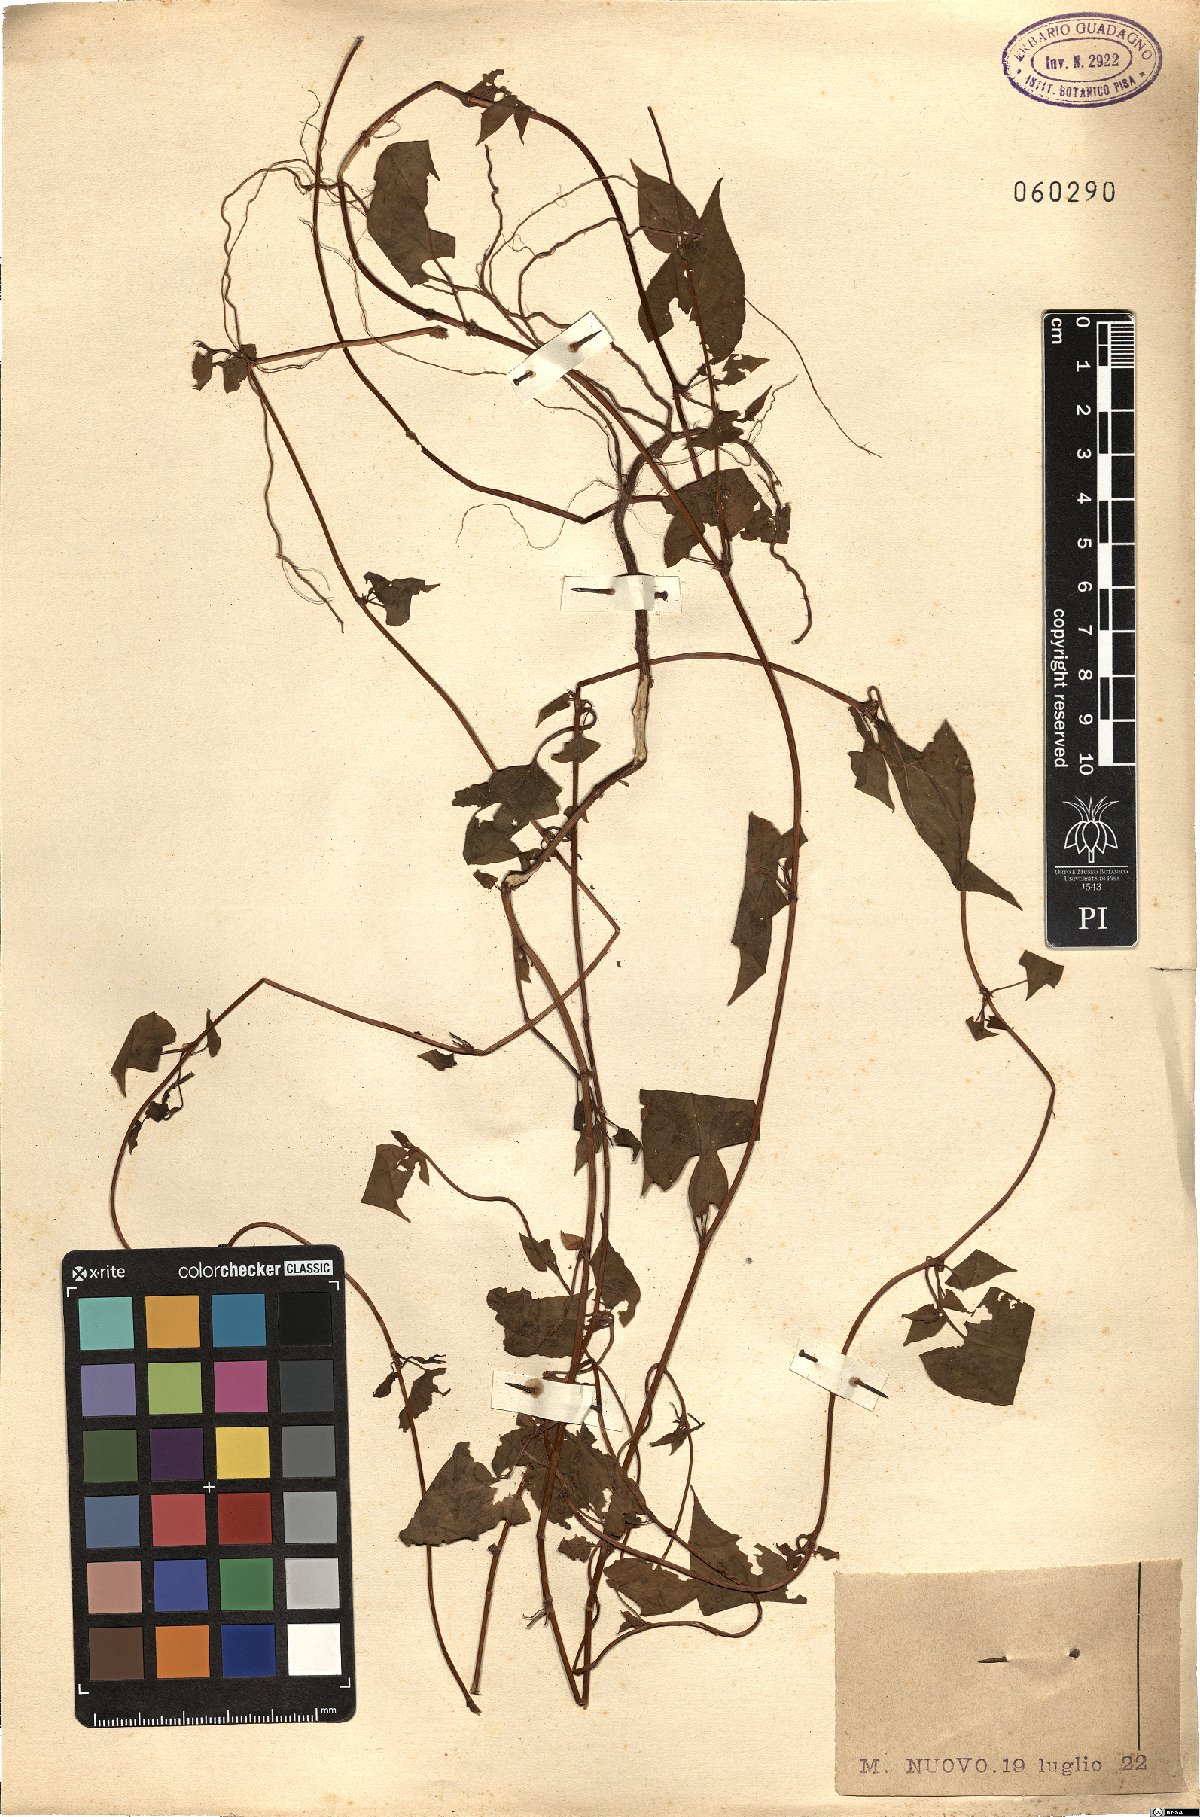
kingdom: Plantae
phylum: Tracheophyta
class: Magnoliopsida
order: Caryophyllales
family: Polygonaceae
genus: Fallopia
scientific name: Fallopia
